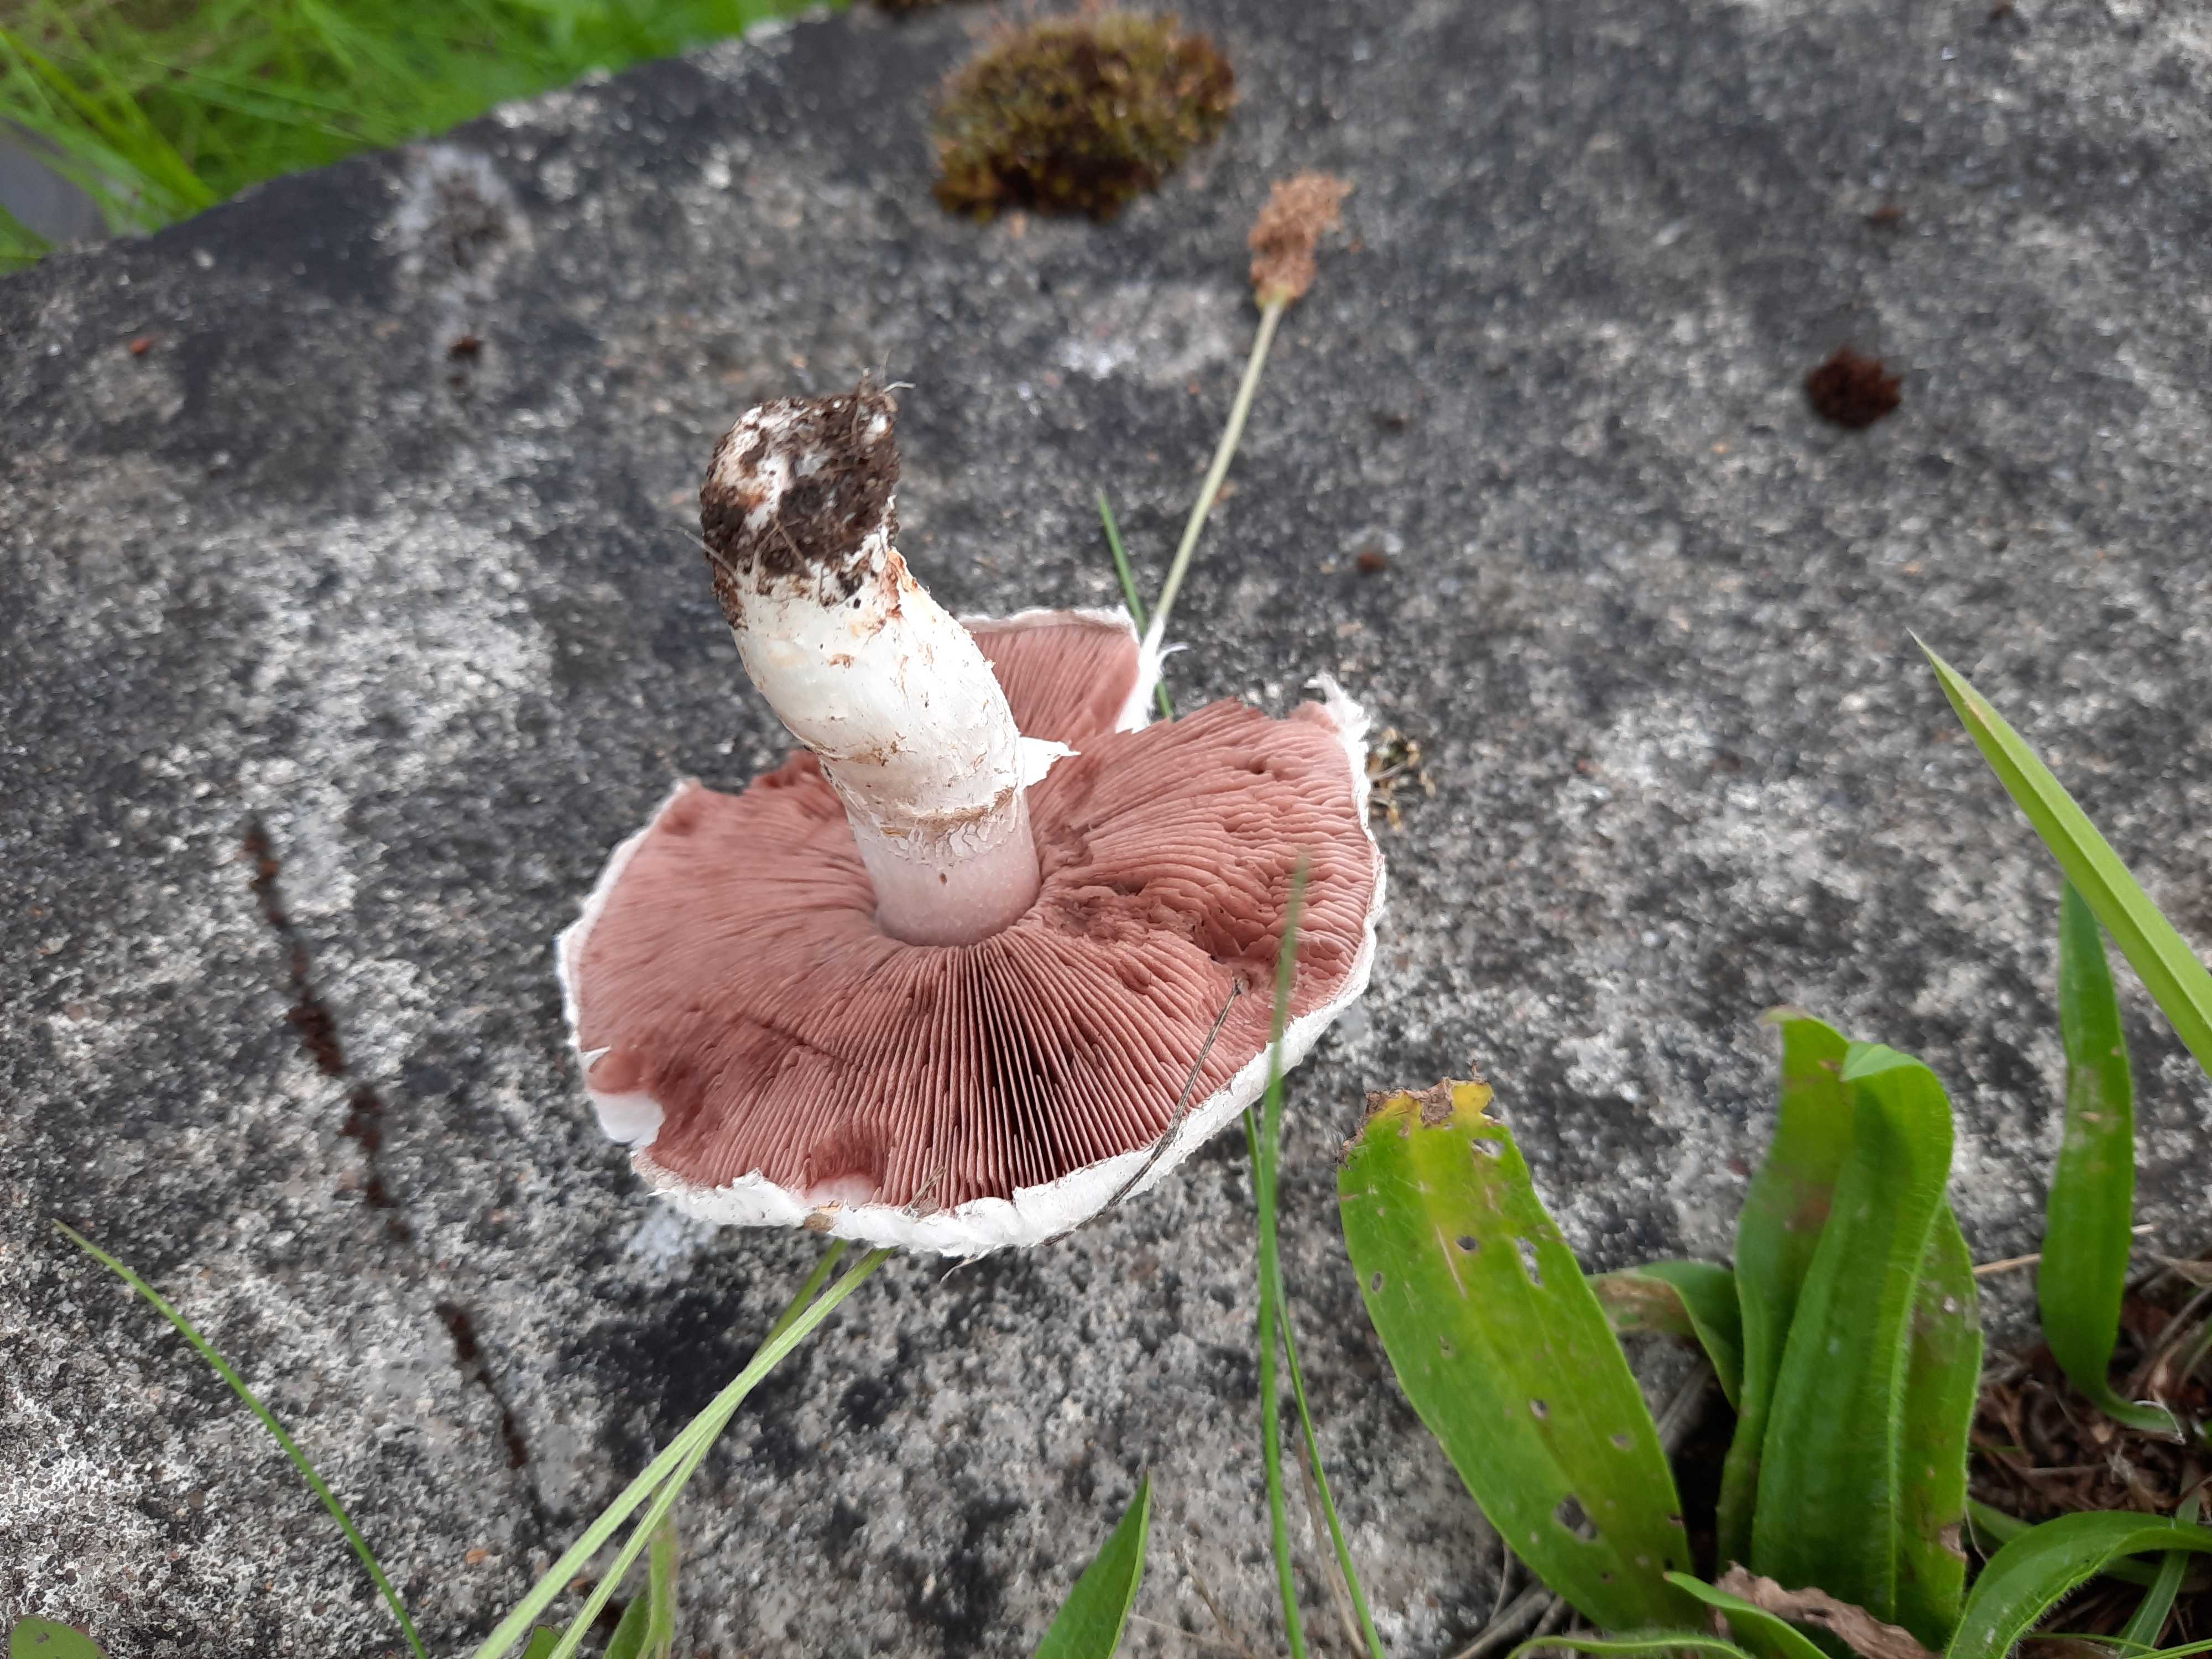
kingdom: Fungi
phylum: Basidiomycota
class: Agaricomycetes
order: Agaricales
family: Agaricaceae
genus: Agaricus
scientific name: Agaricus campestris
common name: mark-champignon
